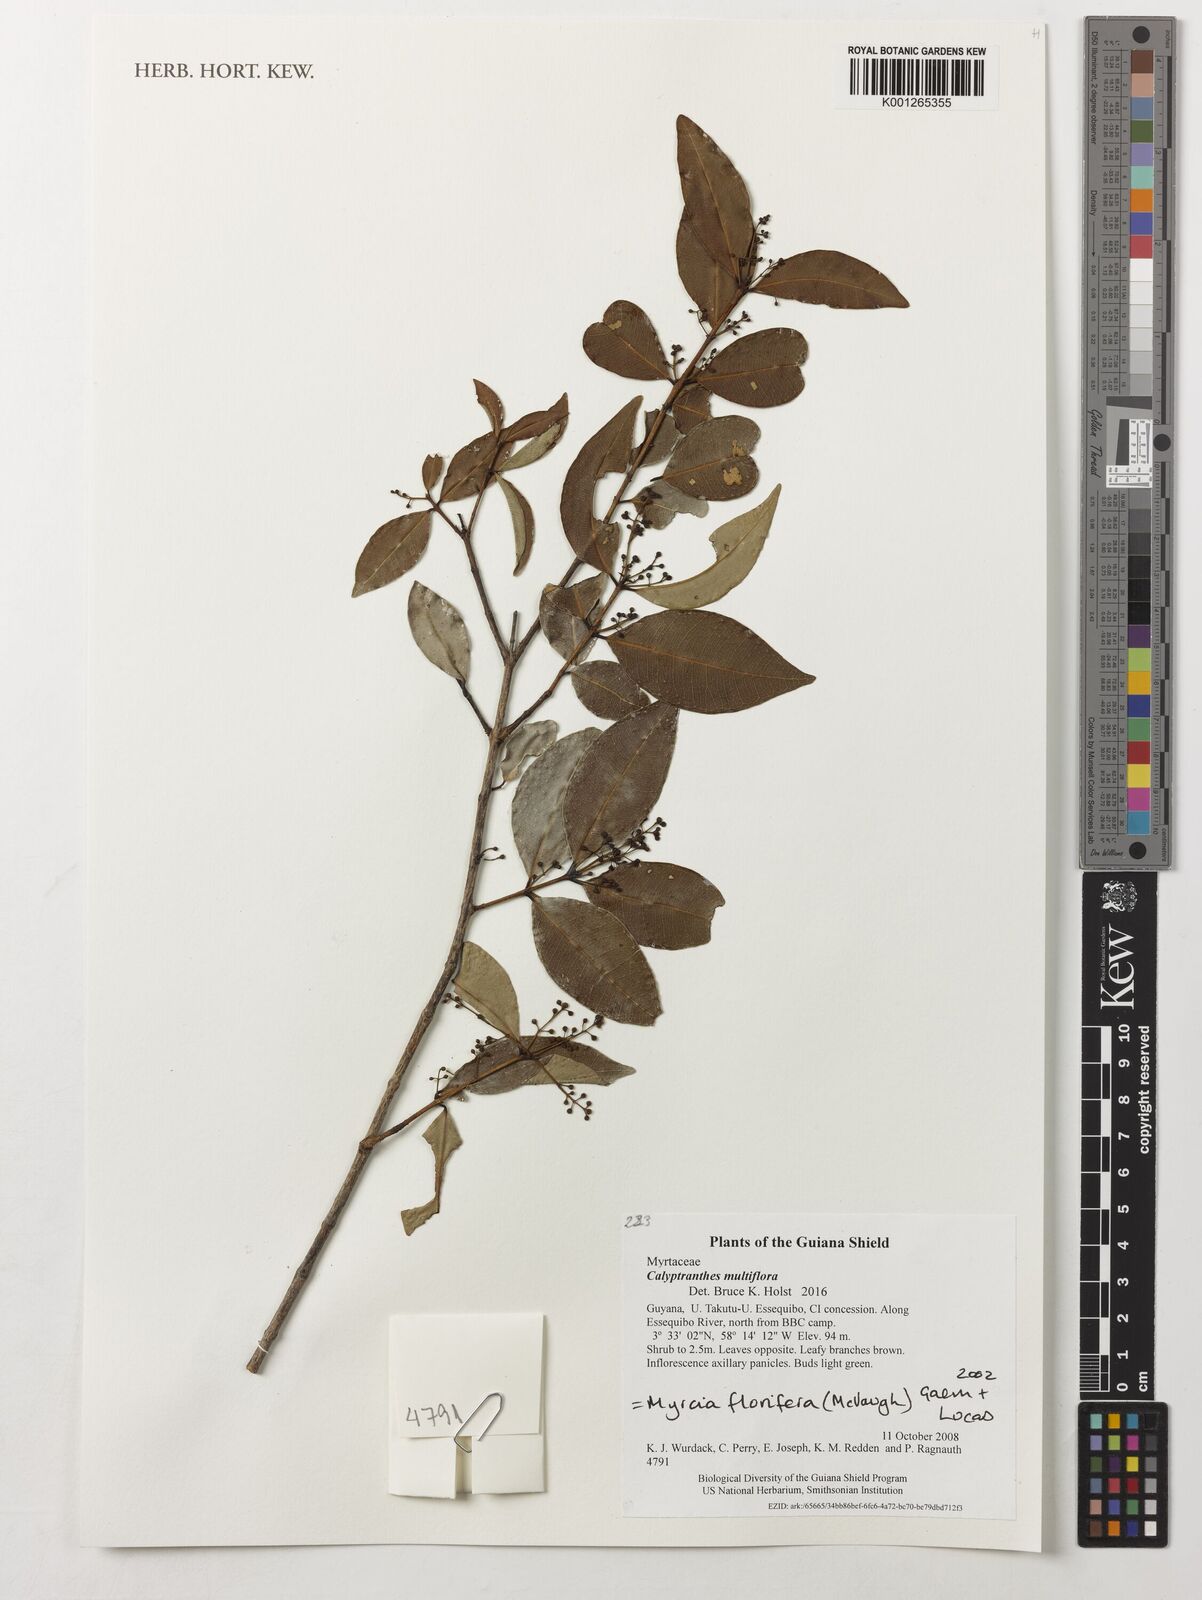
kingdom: Plantae
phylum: Tracheophyta
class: Magnoliopsida
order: Myrtales
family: Myrtaceae
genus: Myrcia
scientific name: Myrcia
